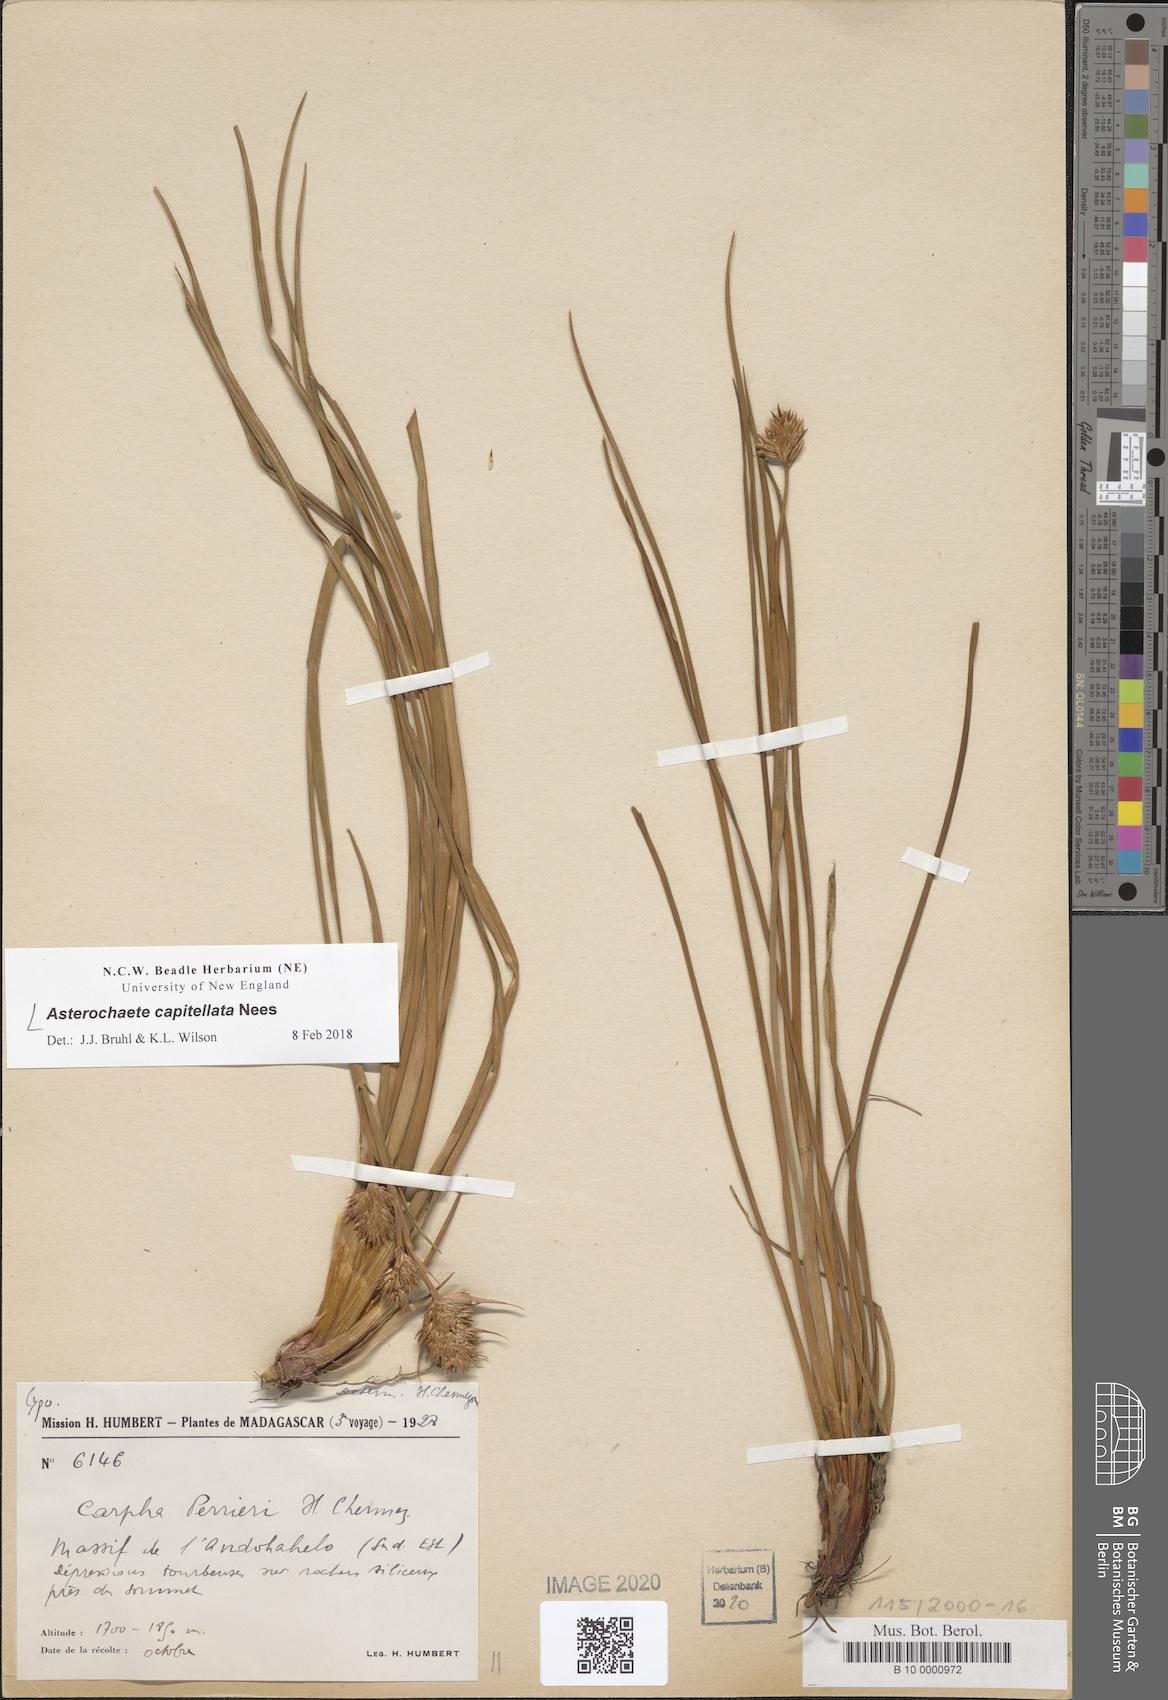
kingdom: Plantae
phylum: Tracheophyta
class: Liliopsida
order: Poales
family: Cyperaceae
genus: Carpha
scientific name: Carpha capitellata
